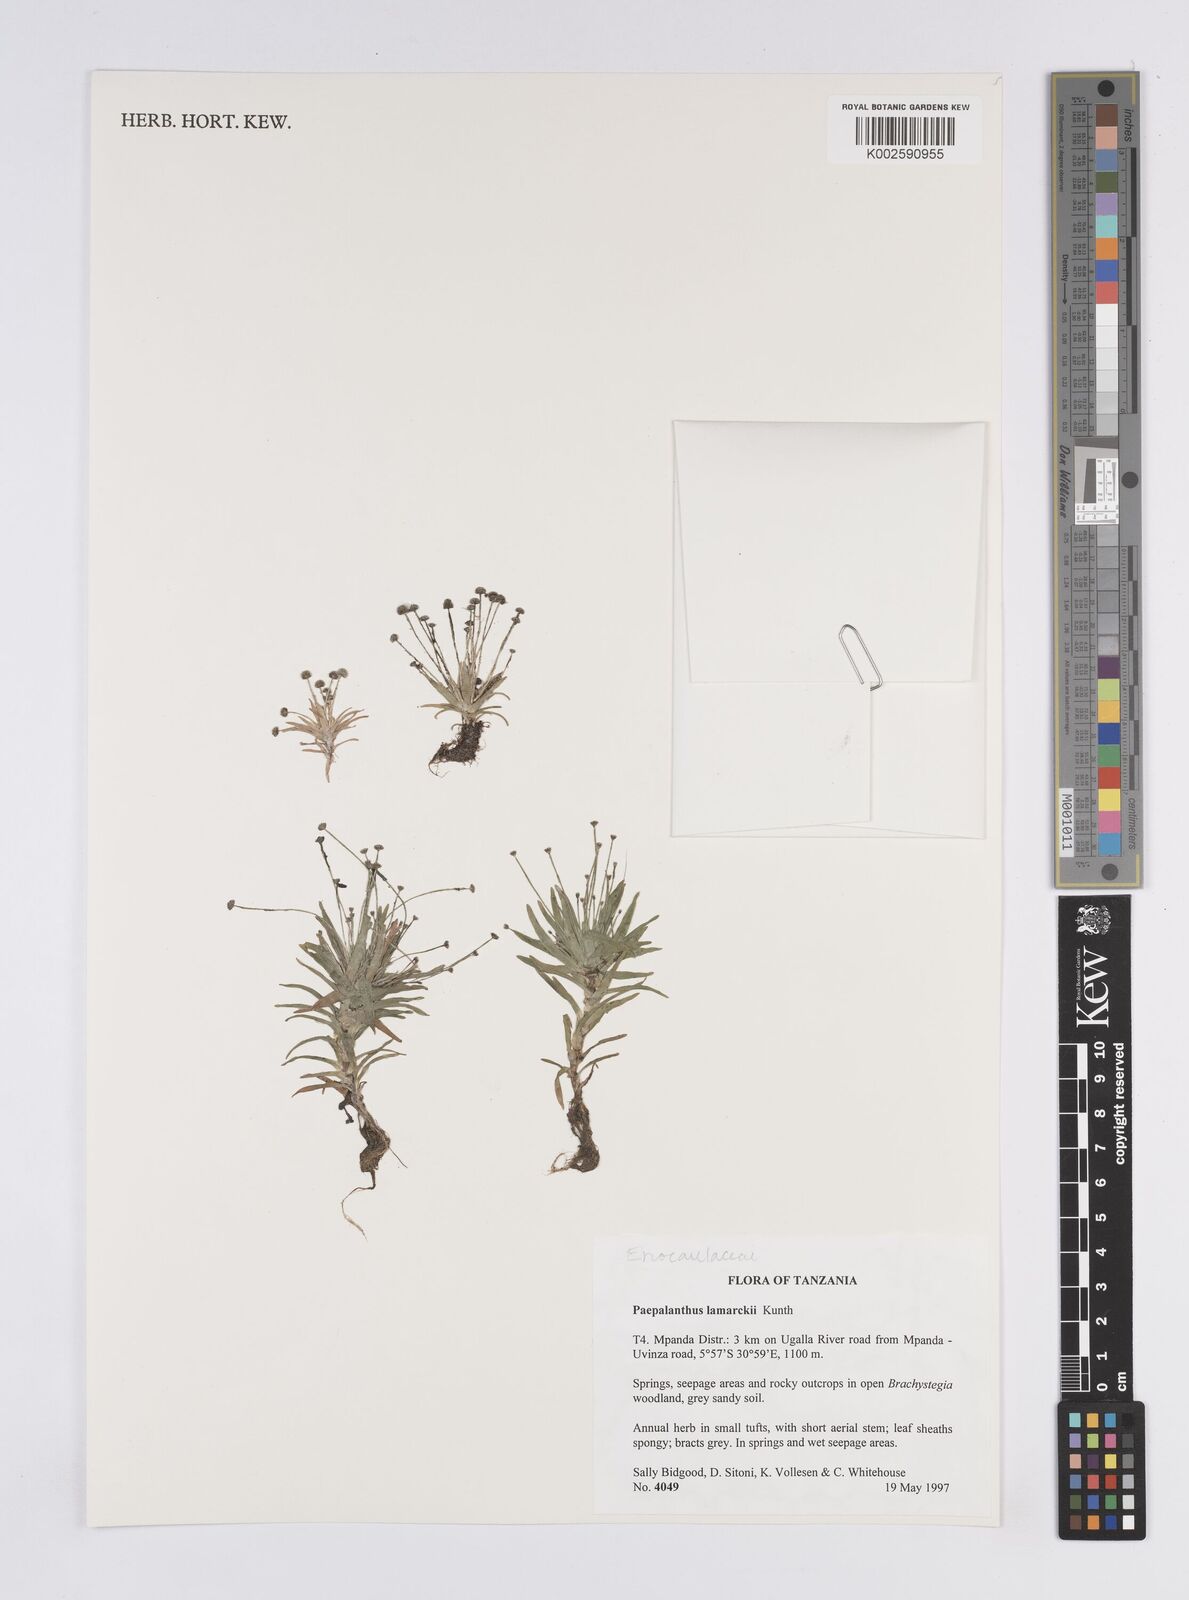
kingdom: Plantae
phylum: Tracheophyta
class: Liliopsida
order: Poales
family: Eriocaulaceae
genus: Paepalanthus
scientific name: Paepalanthus lamarckii
